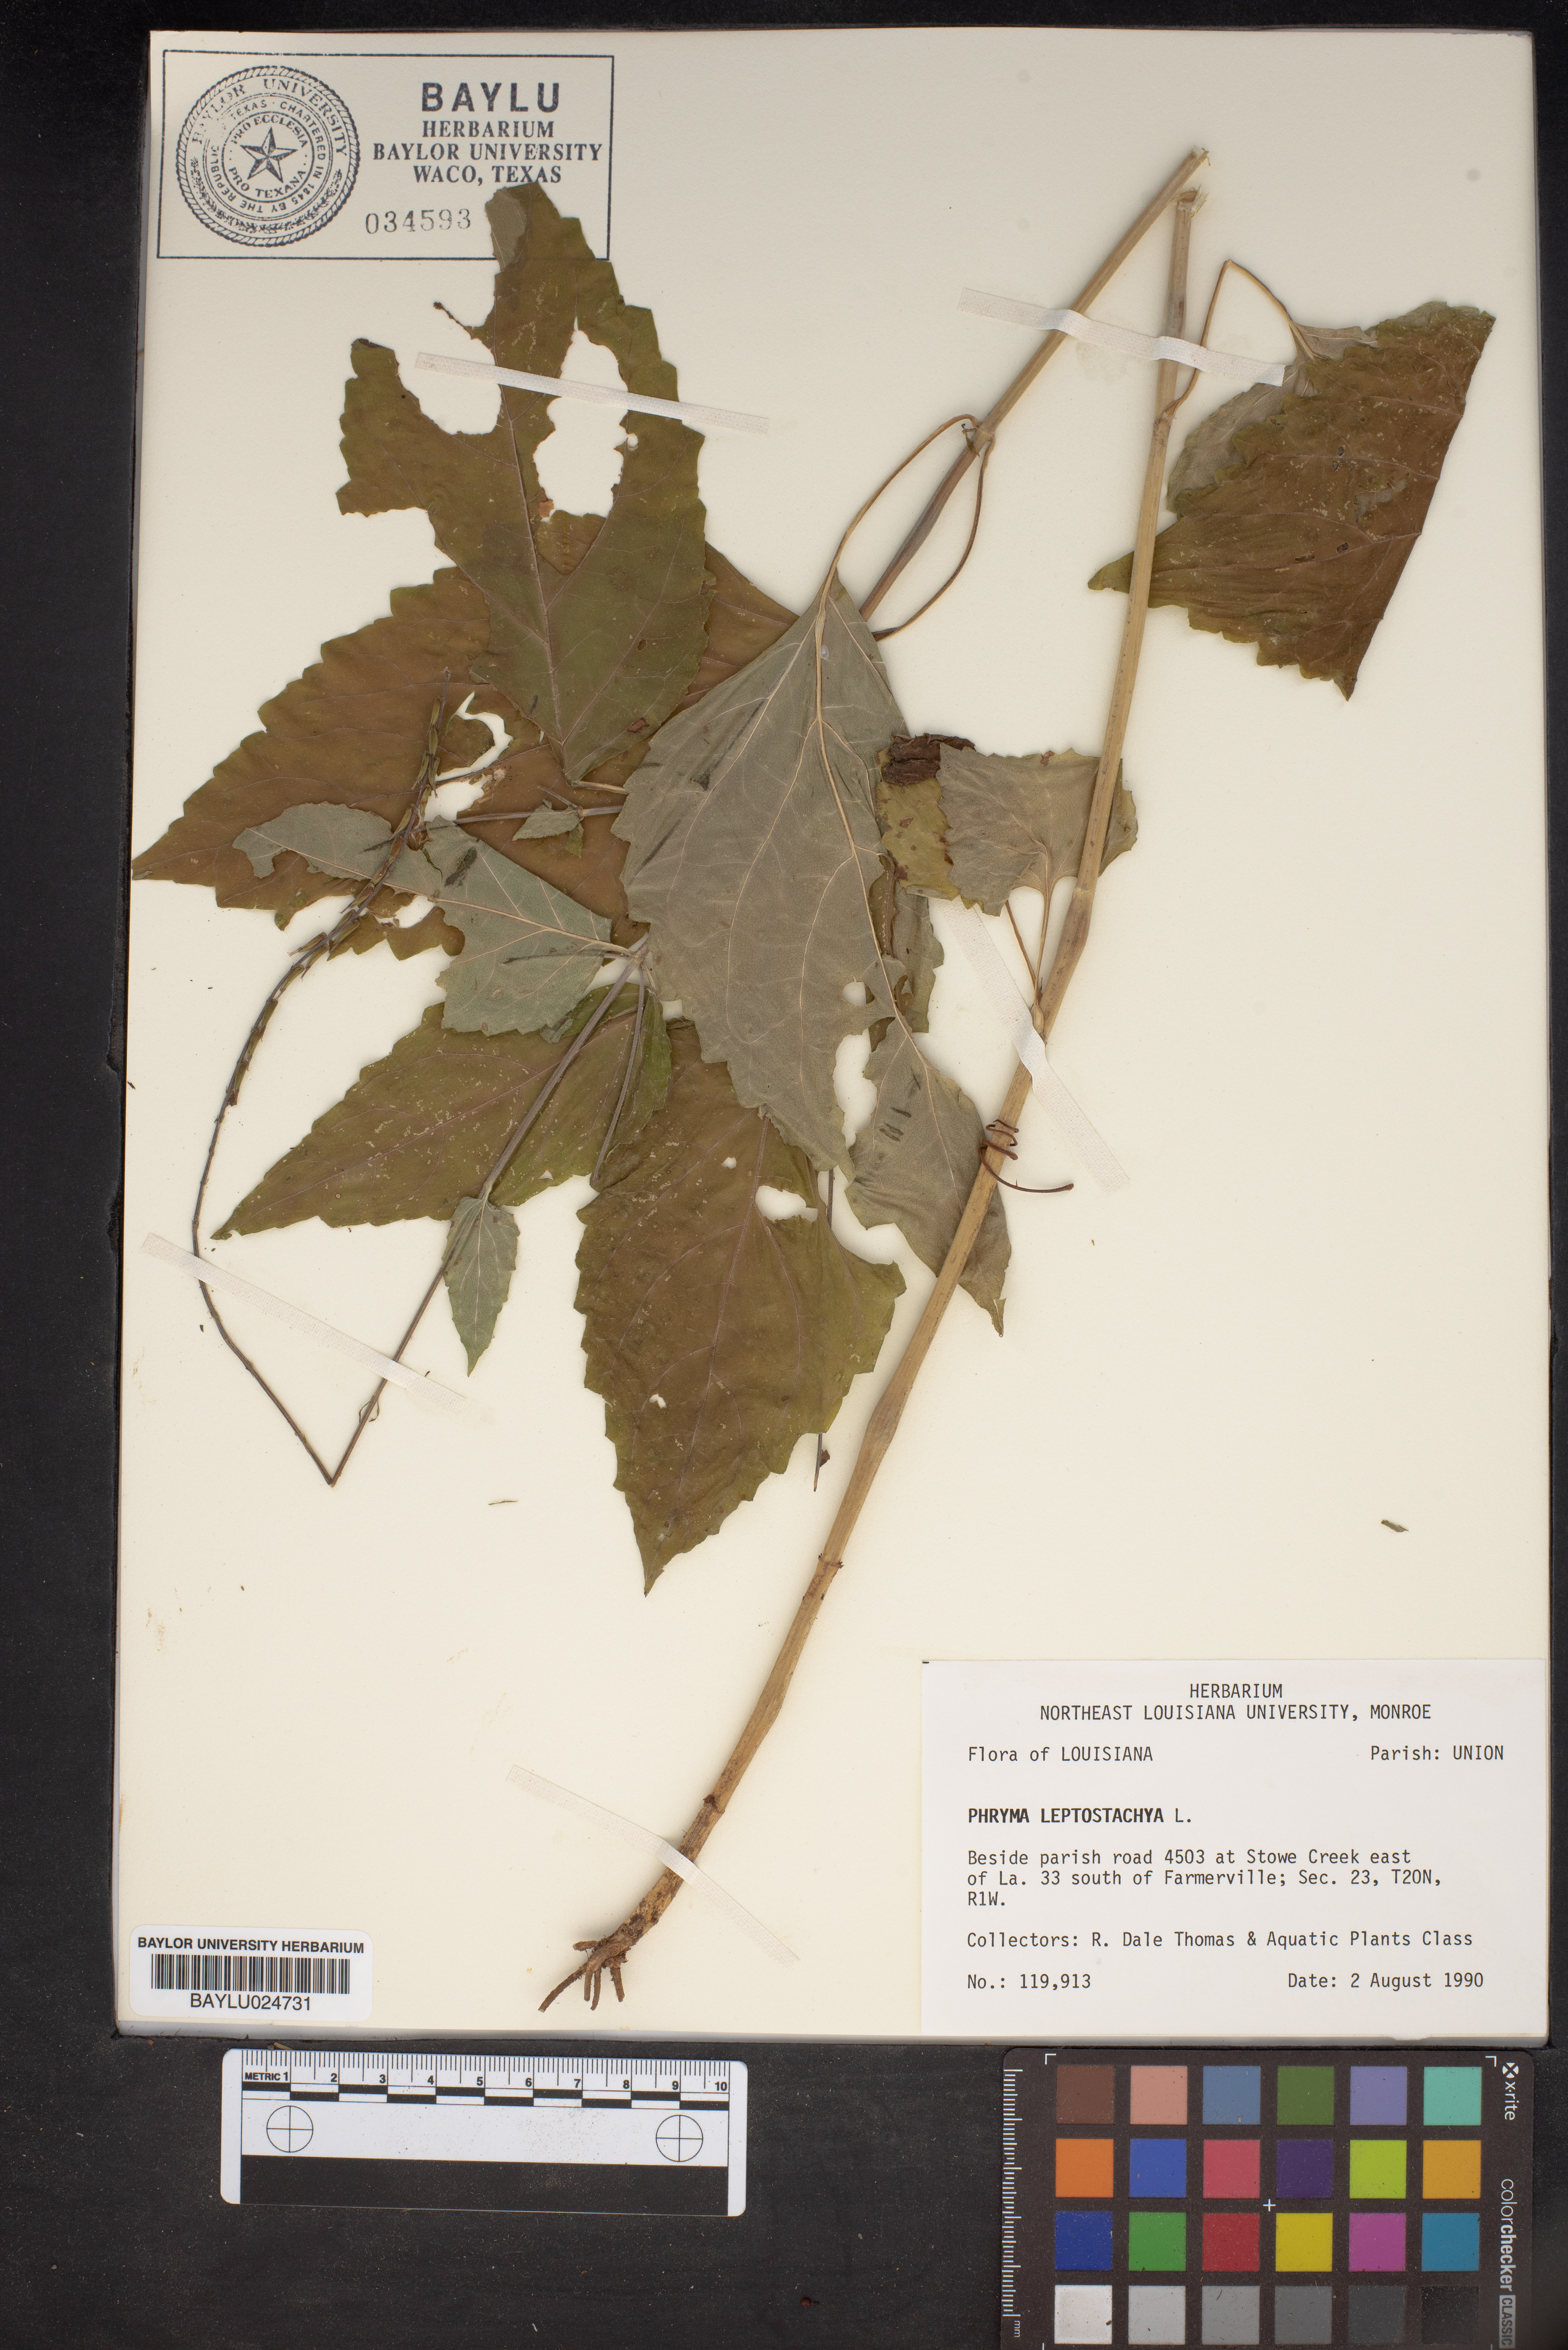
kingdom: Plantae
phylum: Tracheophyta
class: Magnoliopsida
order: Lamiales
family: Phrymaceae
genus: Phryma
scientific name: Phryma leptostachya
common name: American lopseed
